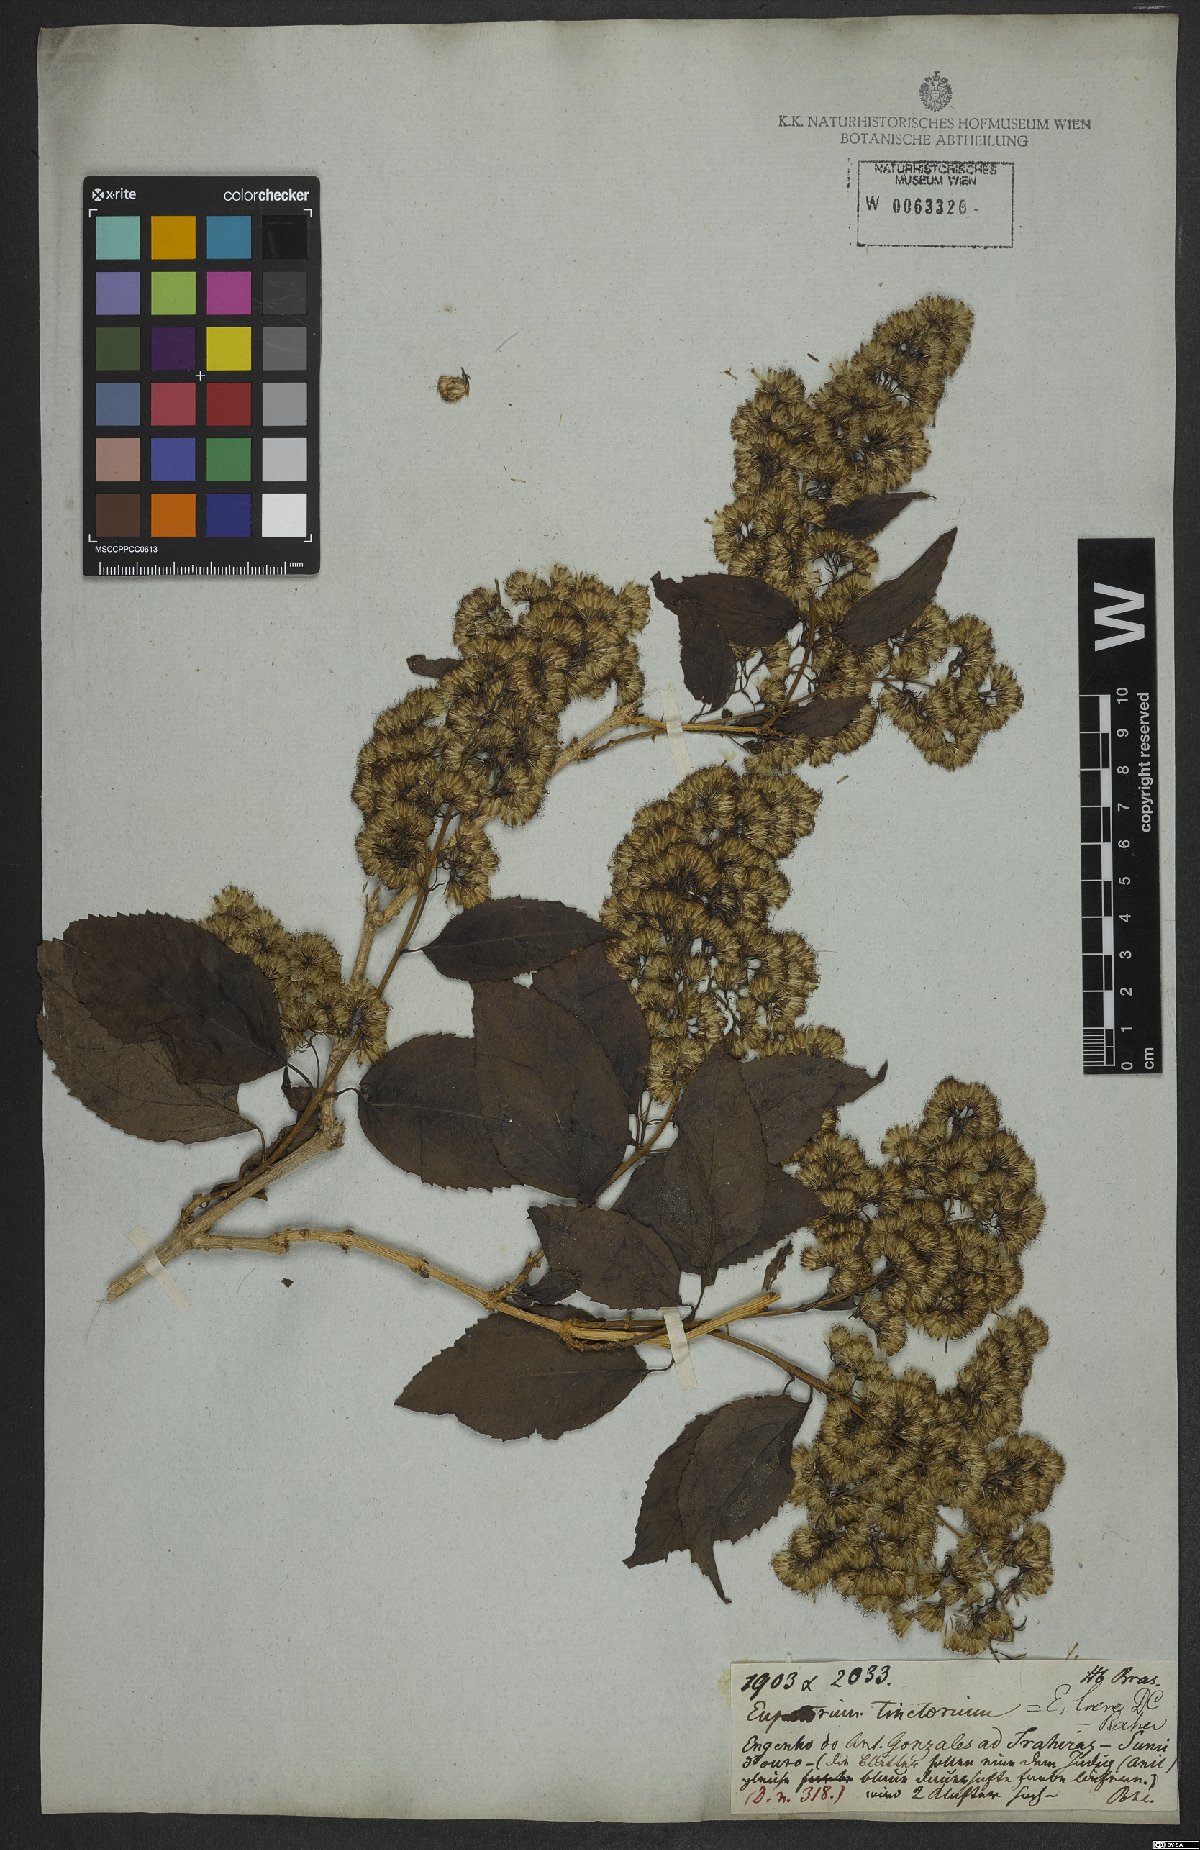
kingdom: Plantae
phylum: Tracheophyta
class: Magnoliopsida
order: Asterales
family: Asteraceae
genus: Koanophyllon
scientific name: Koanophyllon simillimum
